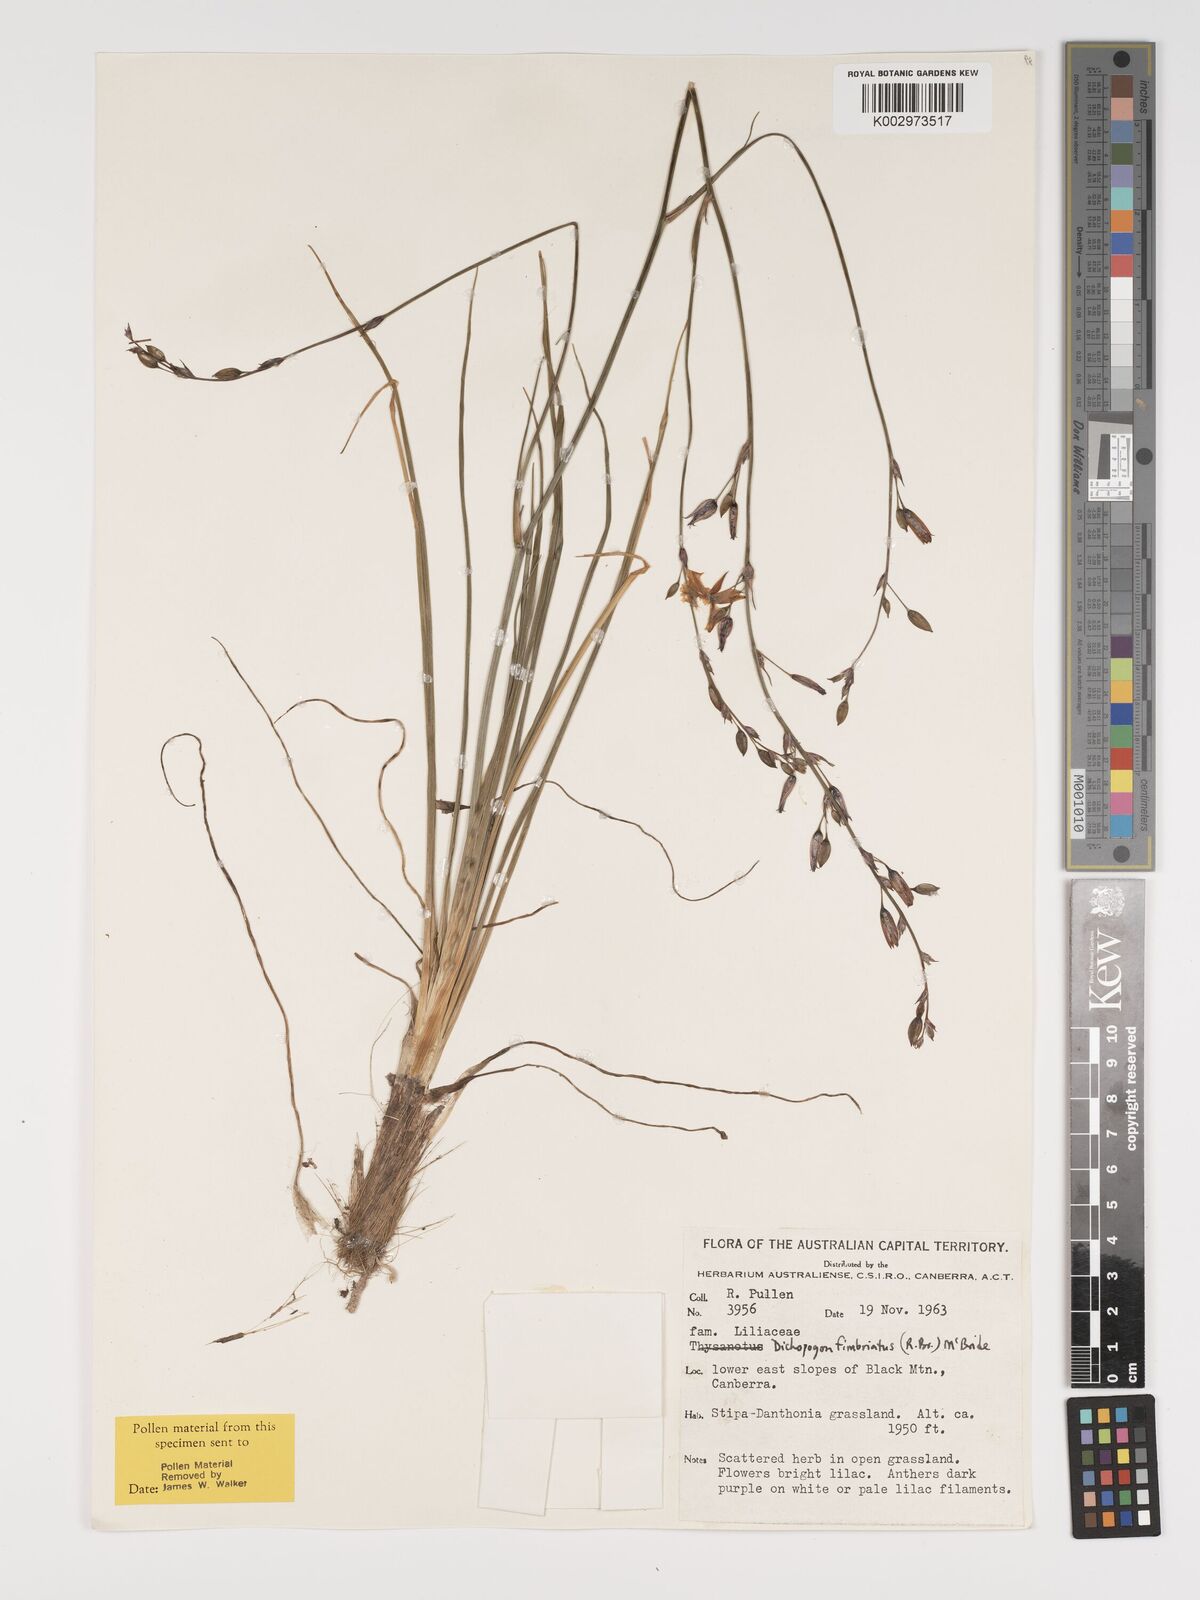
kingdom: Plantae
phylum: Tracheophyta
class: Liliopsida
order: Asparagales
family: Asparagaceae
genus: Dichopogon
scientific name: Dichopogon fimbriatus
